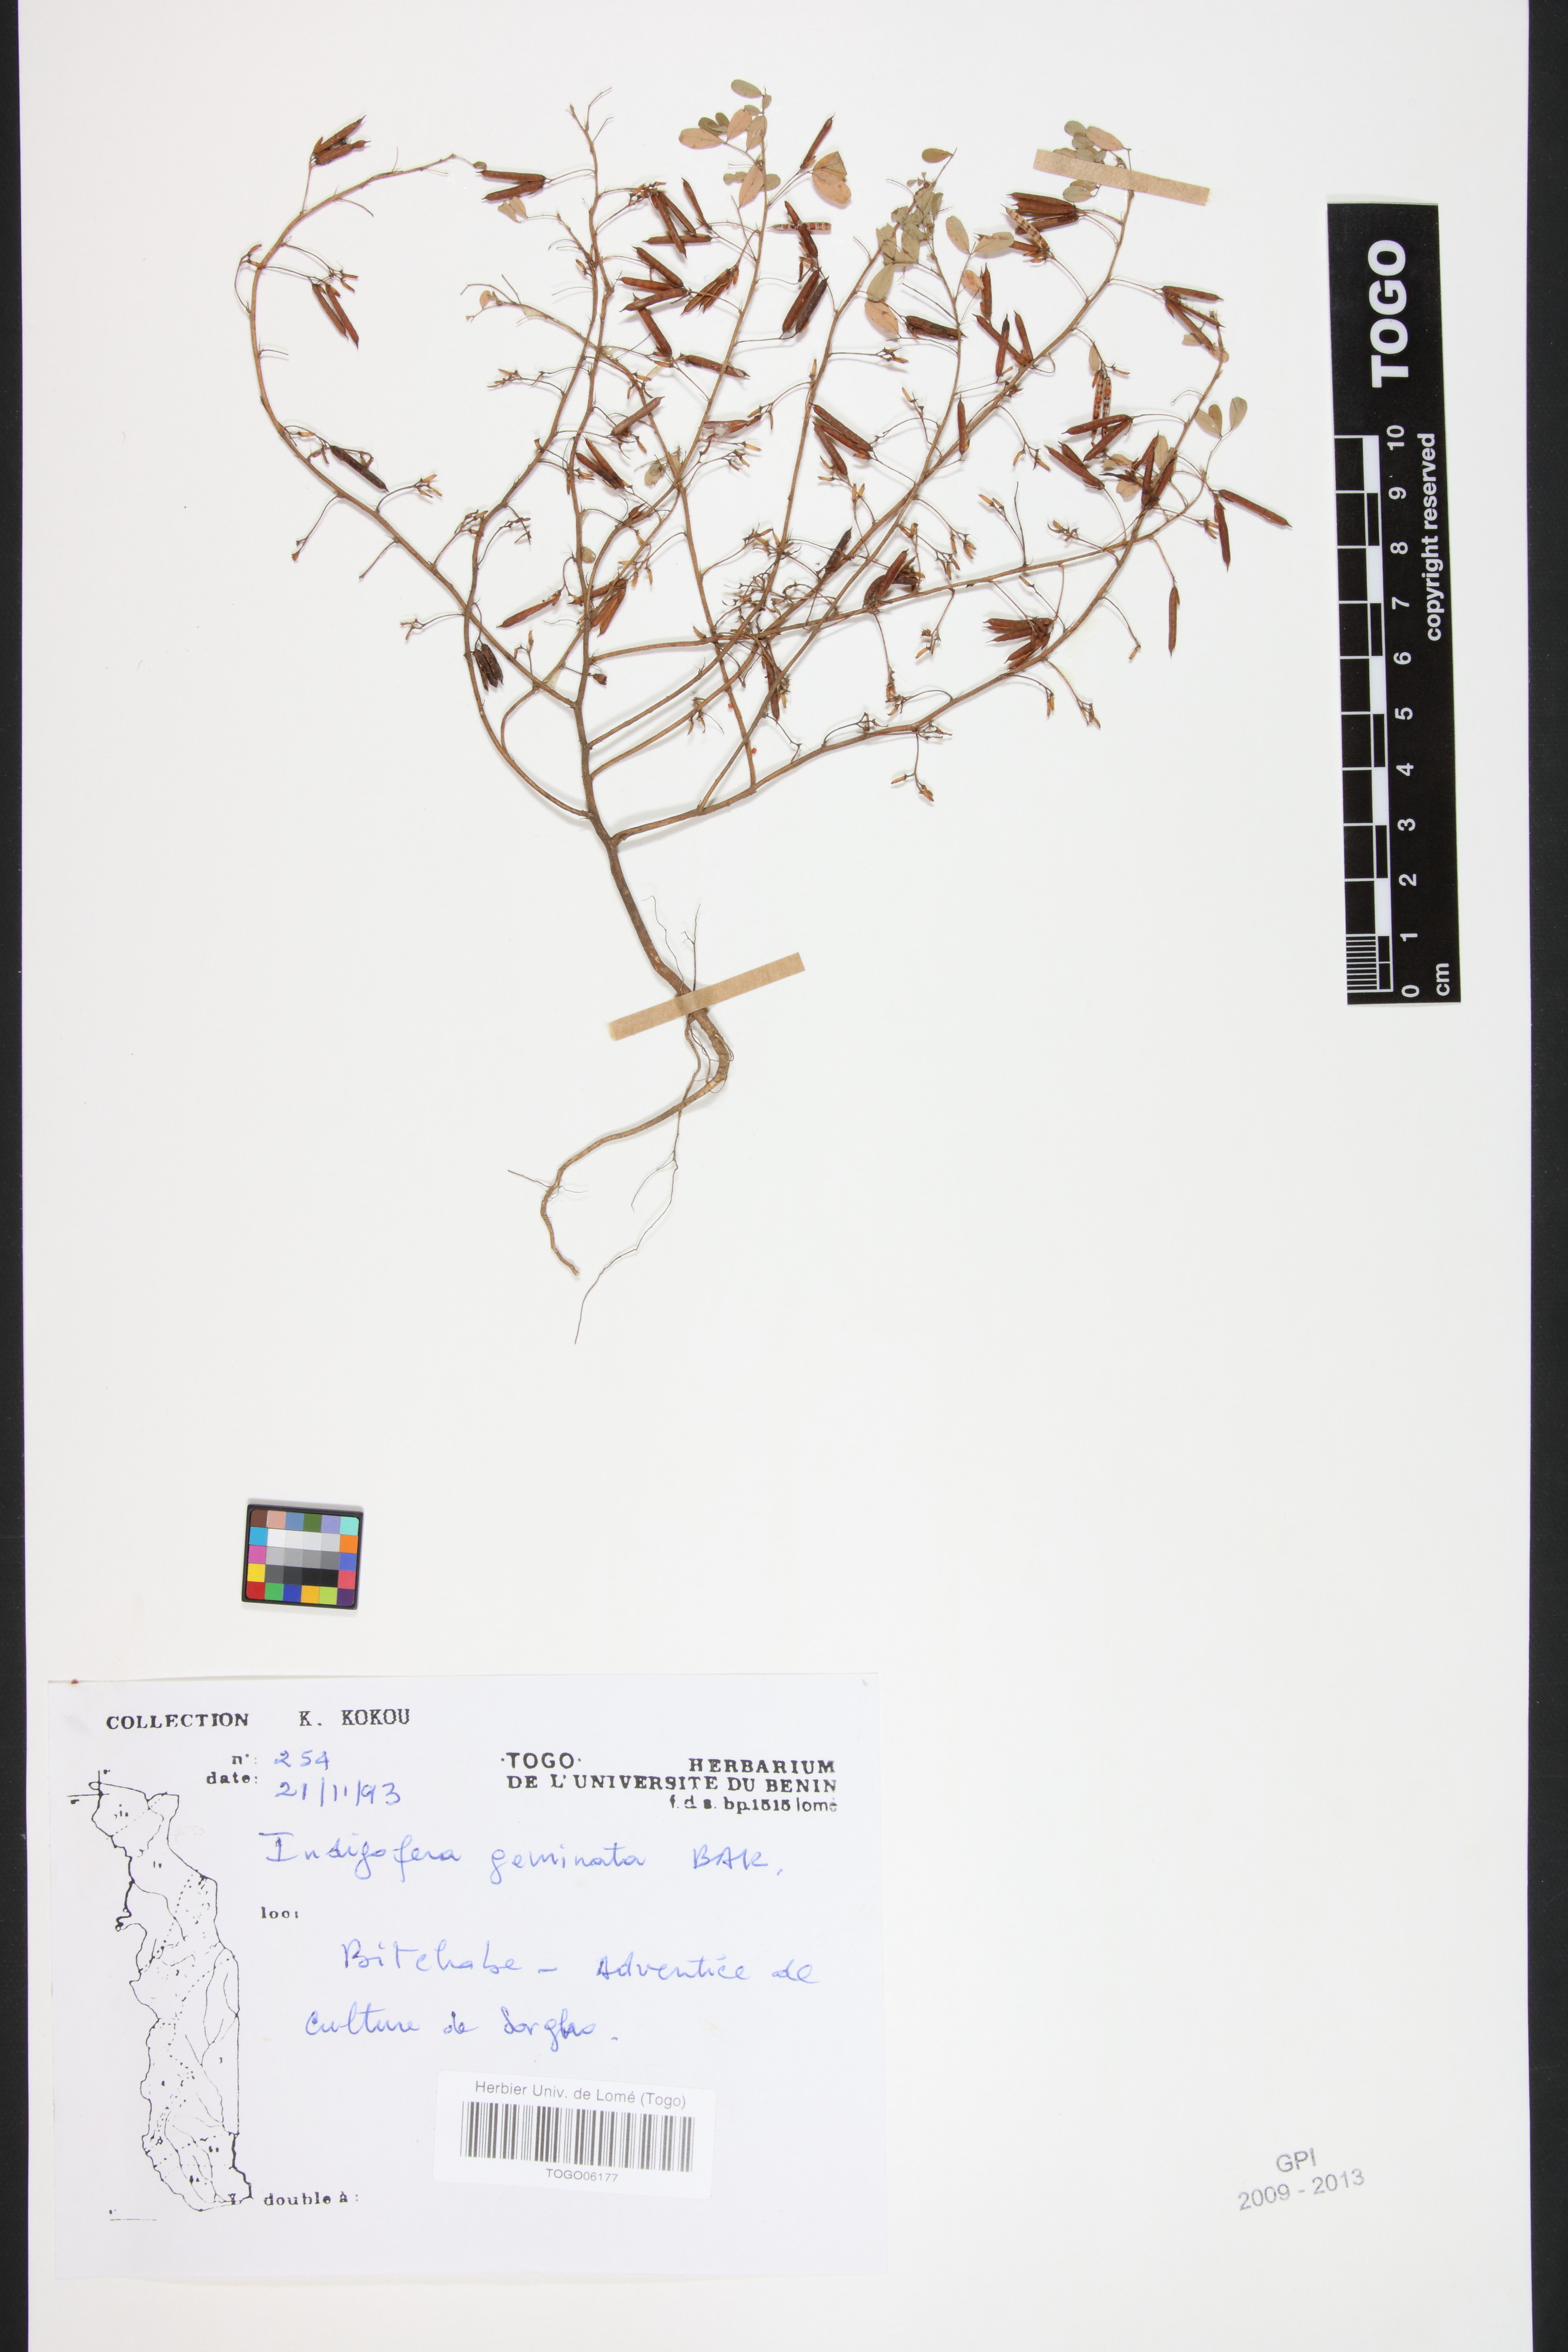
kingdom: Plantae
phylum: Tracheophyta
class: Magnoliopsida
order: Fabales
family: Fabaceae
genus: Indigofera
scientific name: Indigofera geminata
